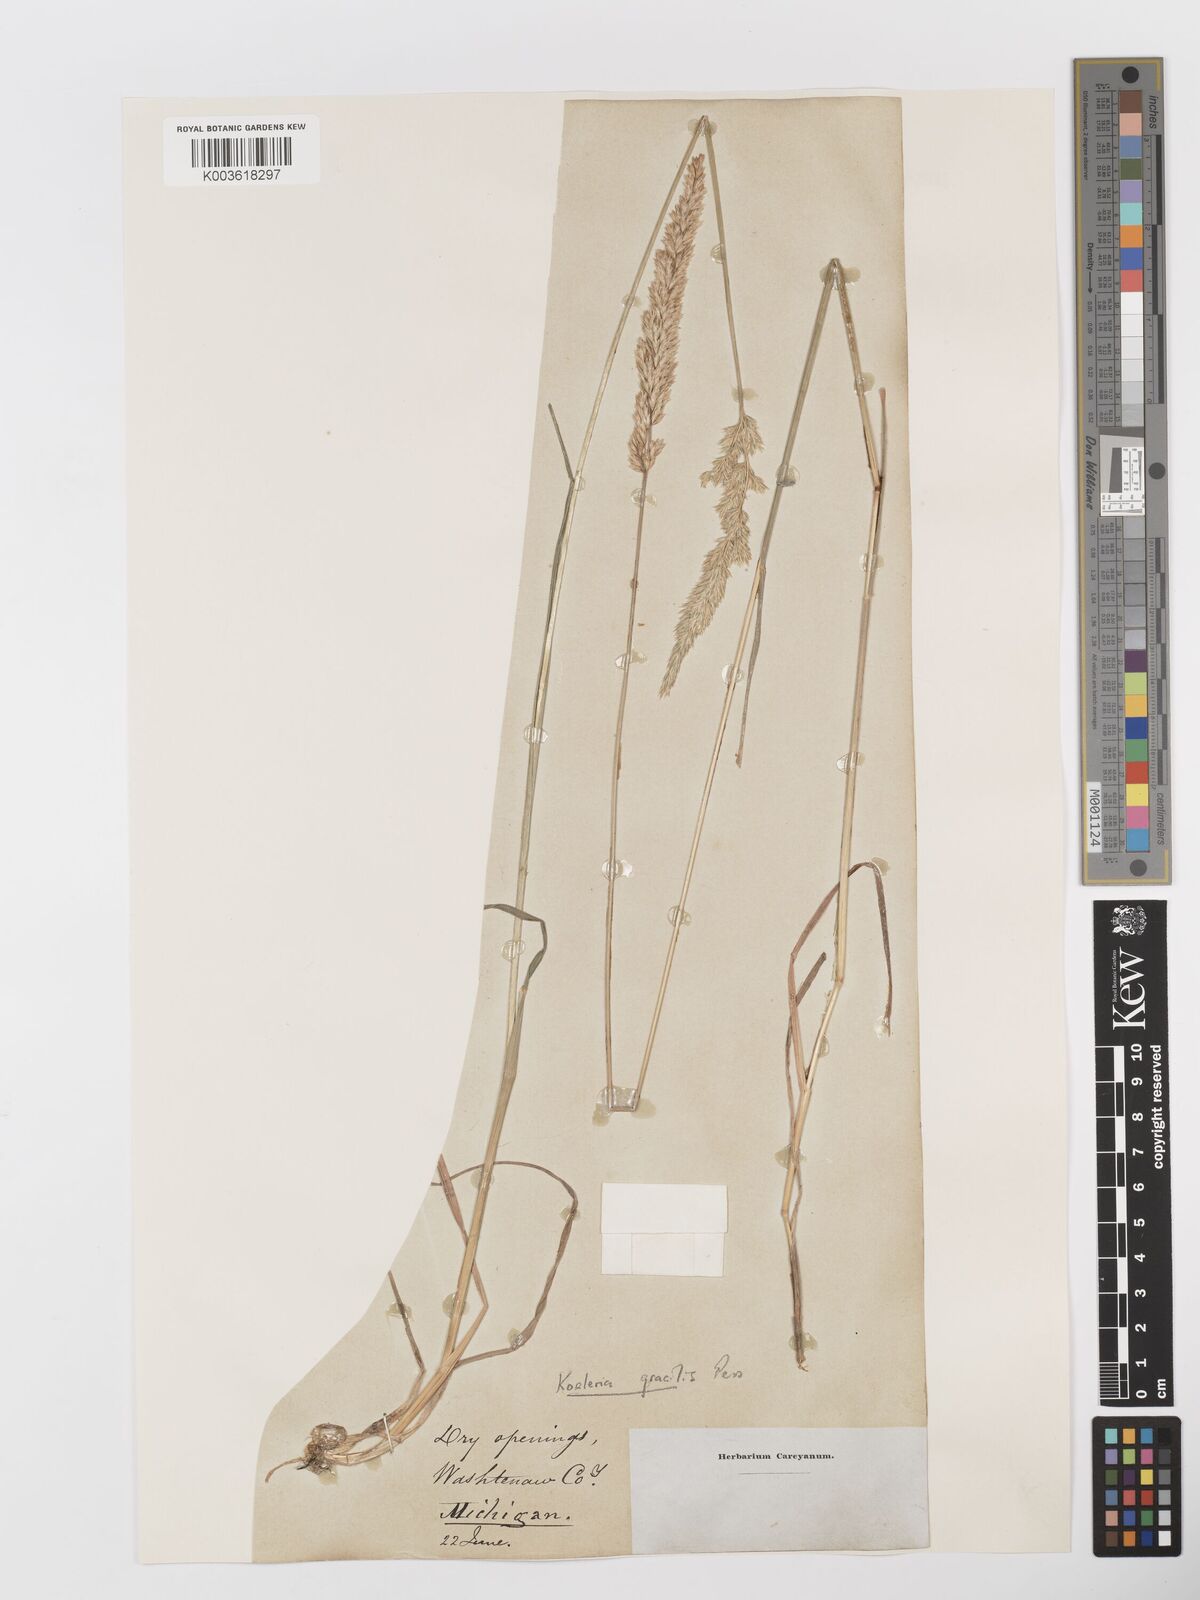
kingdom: Plantae
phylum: Tracheophyta
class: Liliopsida
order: Poales
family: Poaceae
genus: Koeleria
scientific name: Koeleria macrantha
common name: Crested hair-grass
